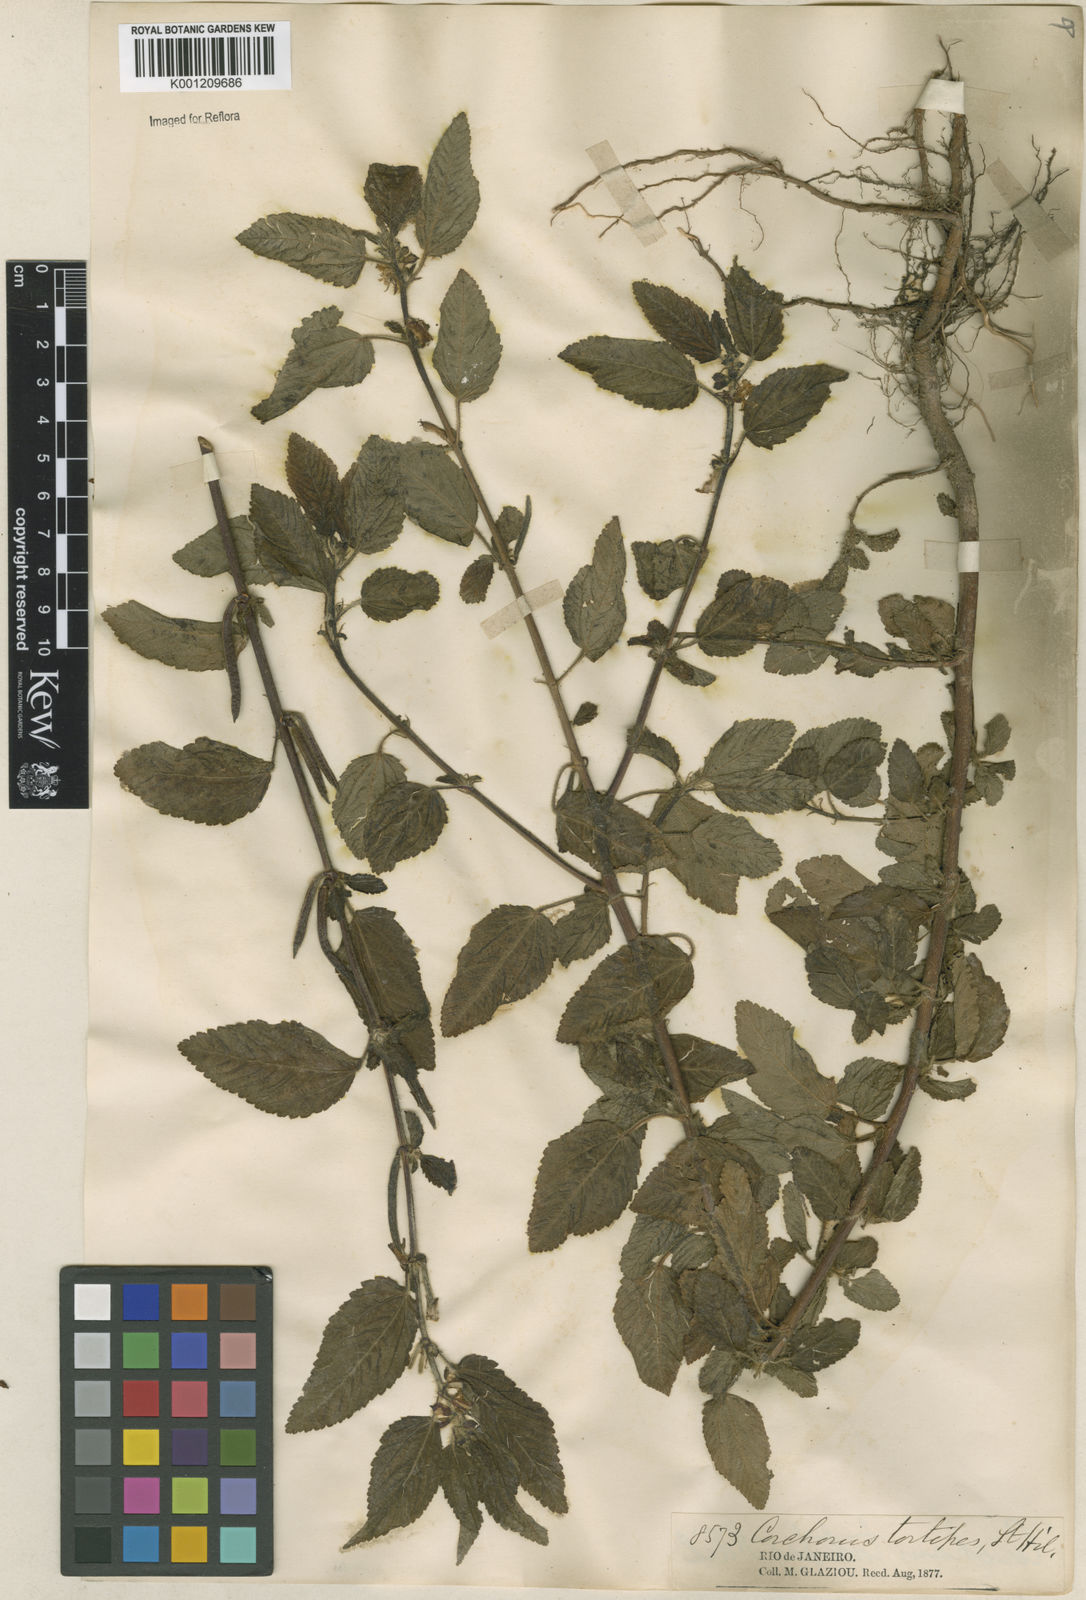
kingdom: Plantae
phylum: Tracheophyta
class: Magnoliopsida
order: Malvales
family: Malvaceae
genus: Corchorus
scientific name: Corchorus hirtus
